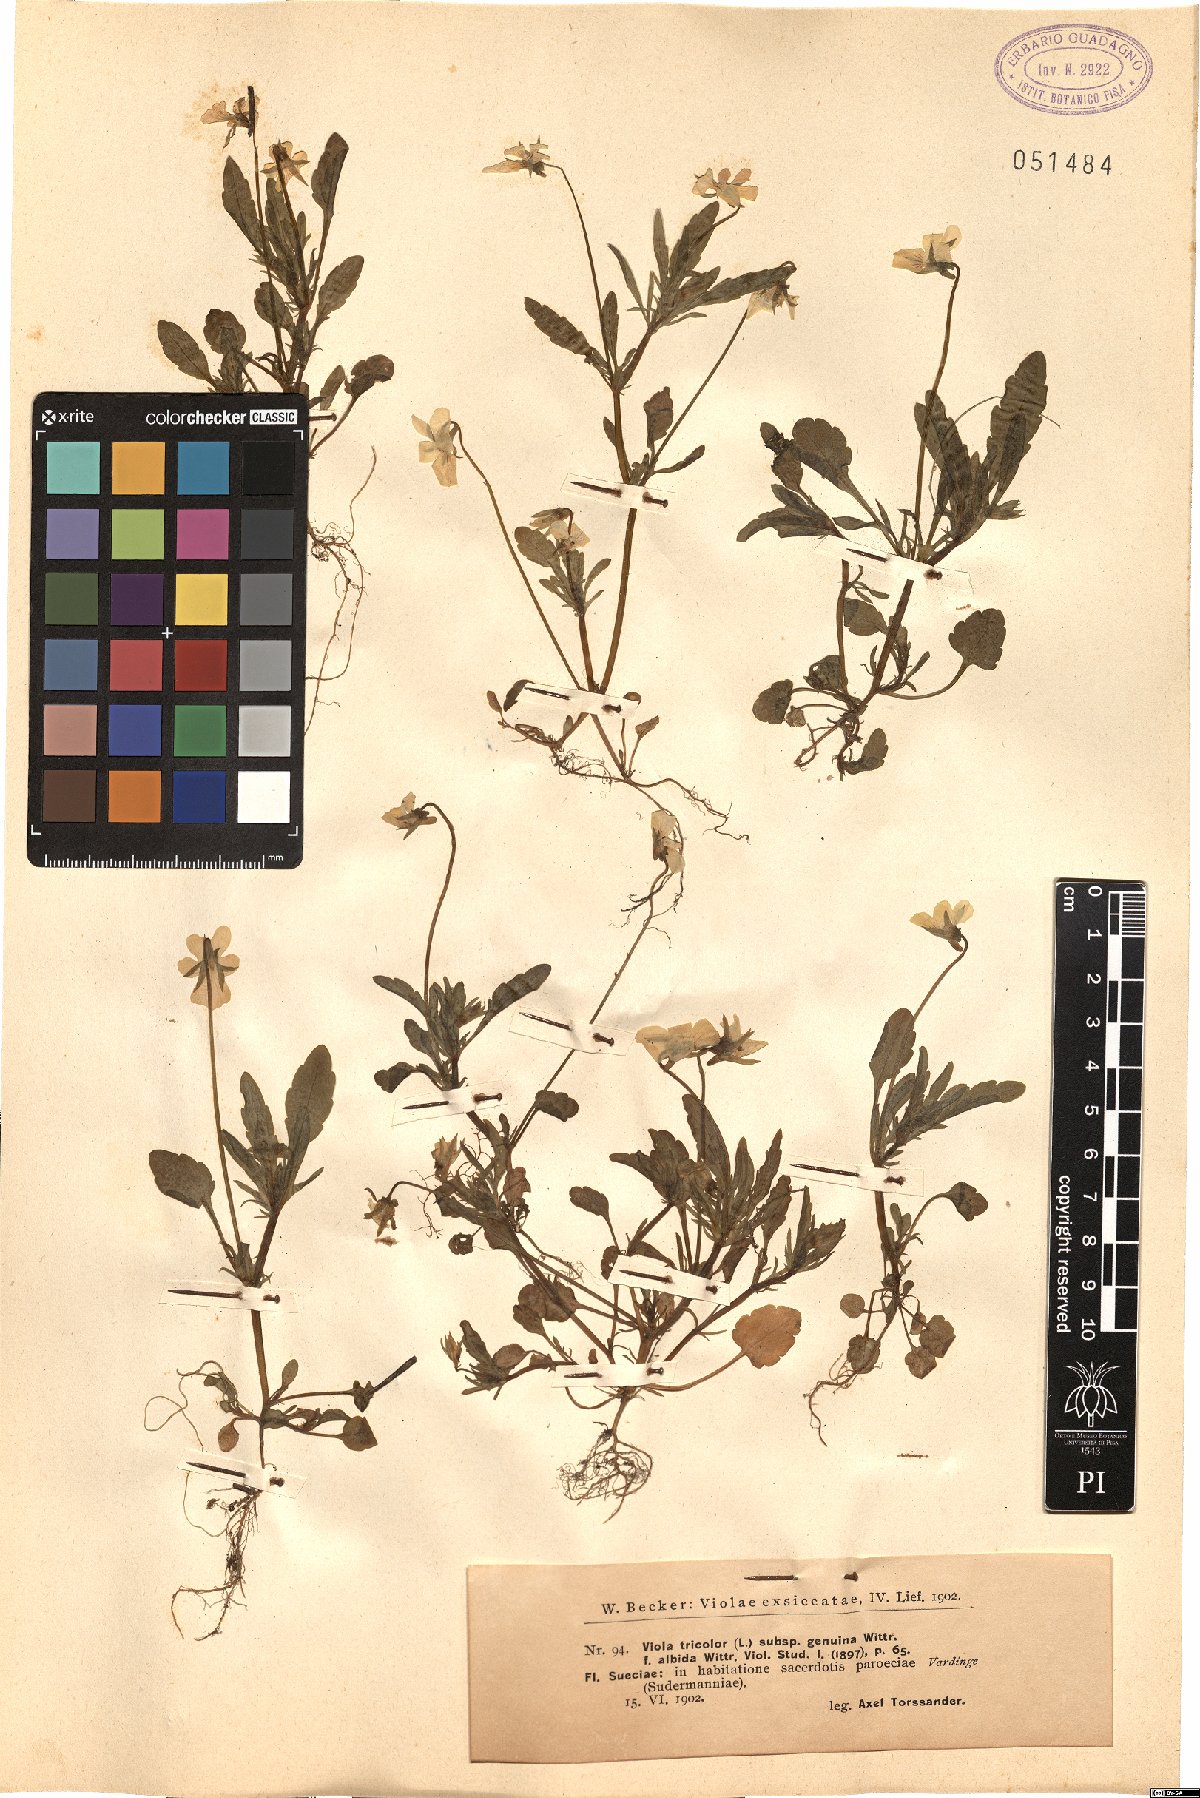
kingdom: Plantae
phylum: Tracheophyta
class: Magnoliopsida
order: Malpighiales
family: Violaceae
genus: Viola
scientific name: Viola tricolor
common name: Pansy
